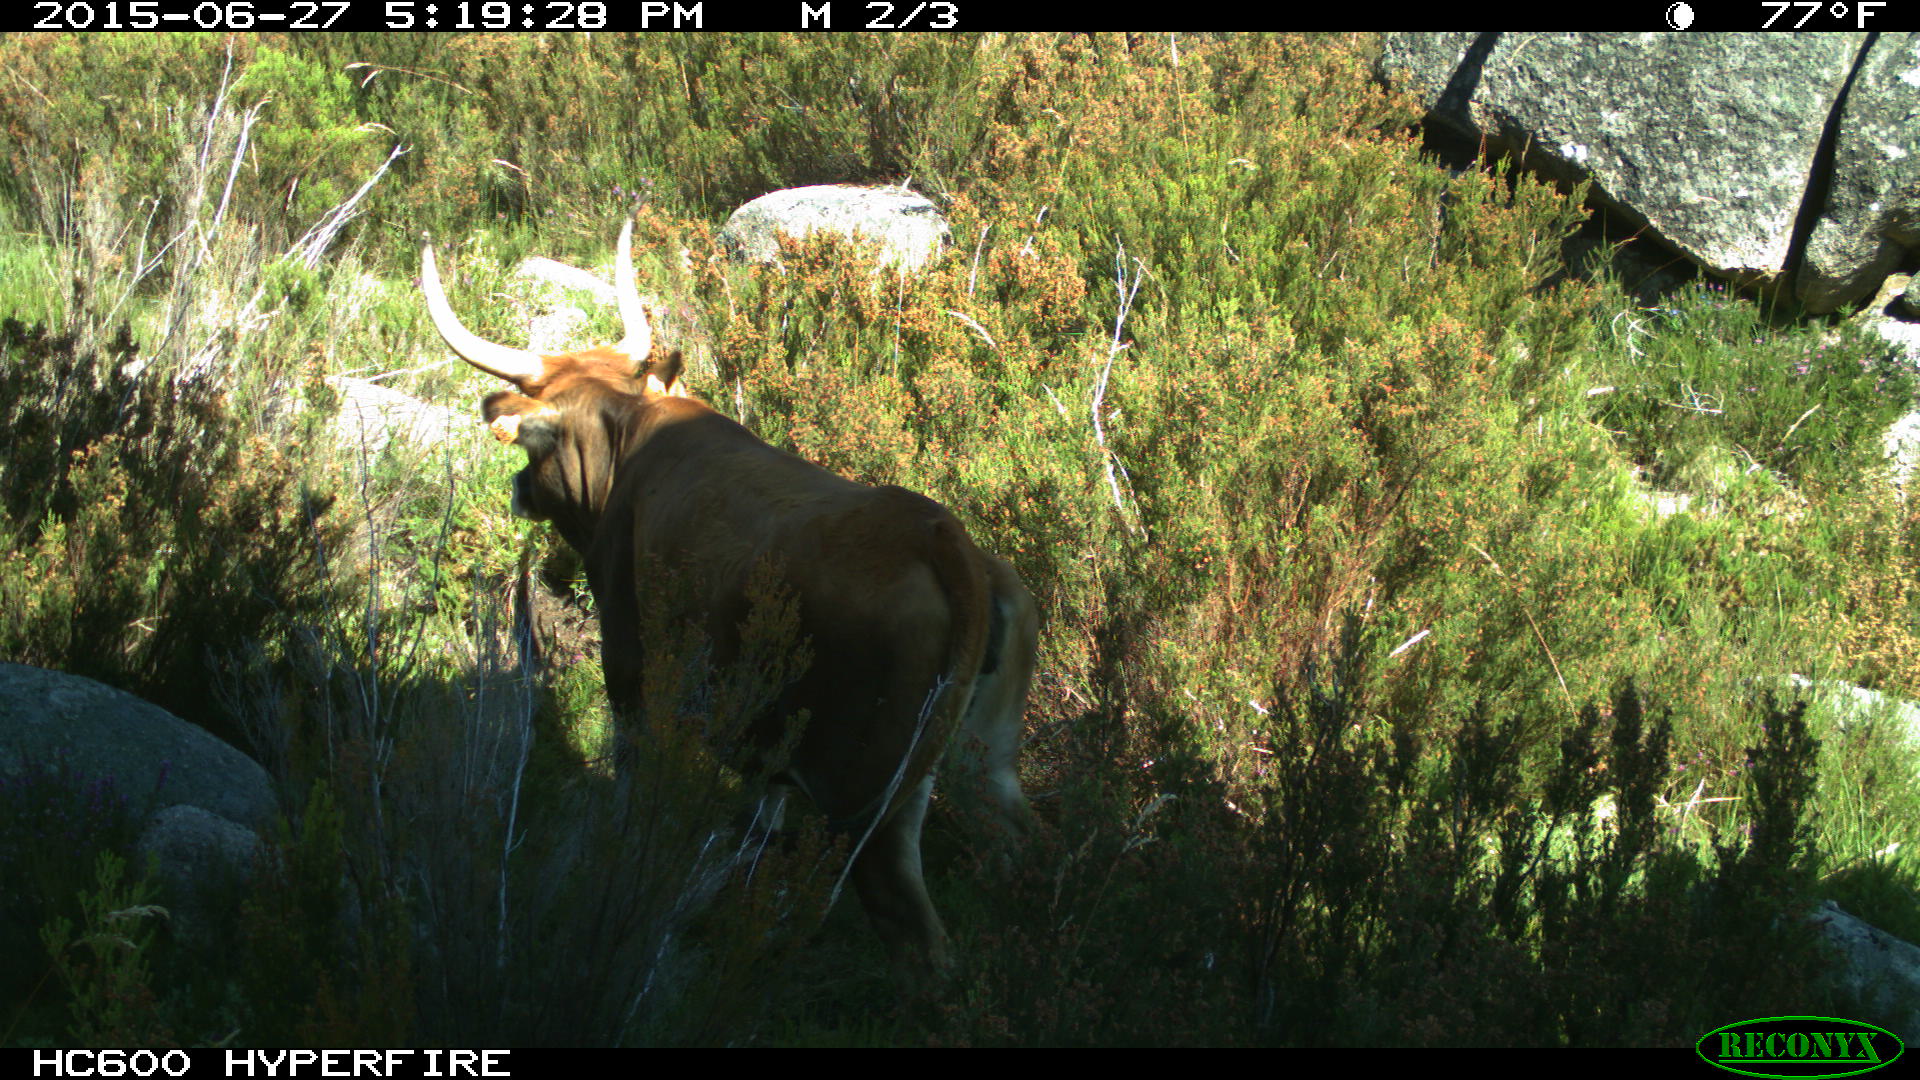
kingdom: Animalia
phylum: Chordata
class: Mammalia
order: Artiodactyla
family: Bovidae
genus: Bos
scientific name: Bos taurus
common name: Domesticated cattle
